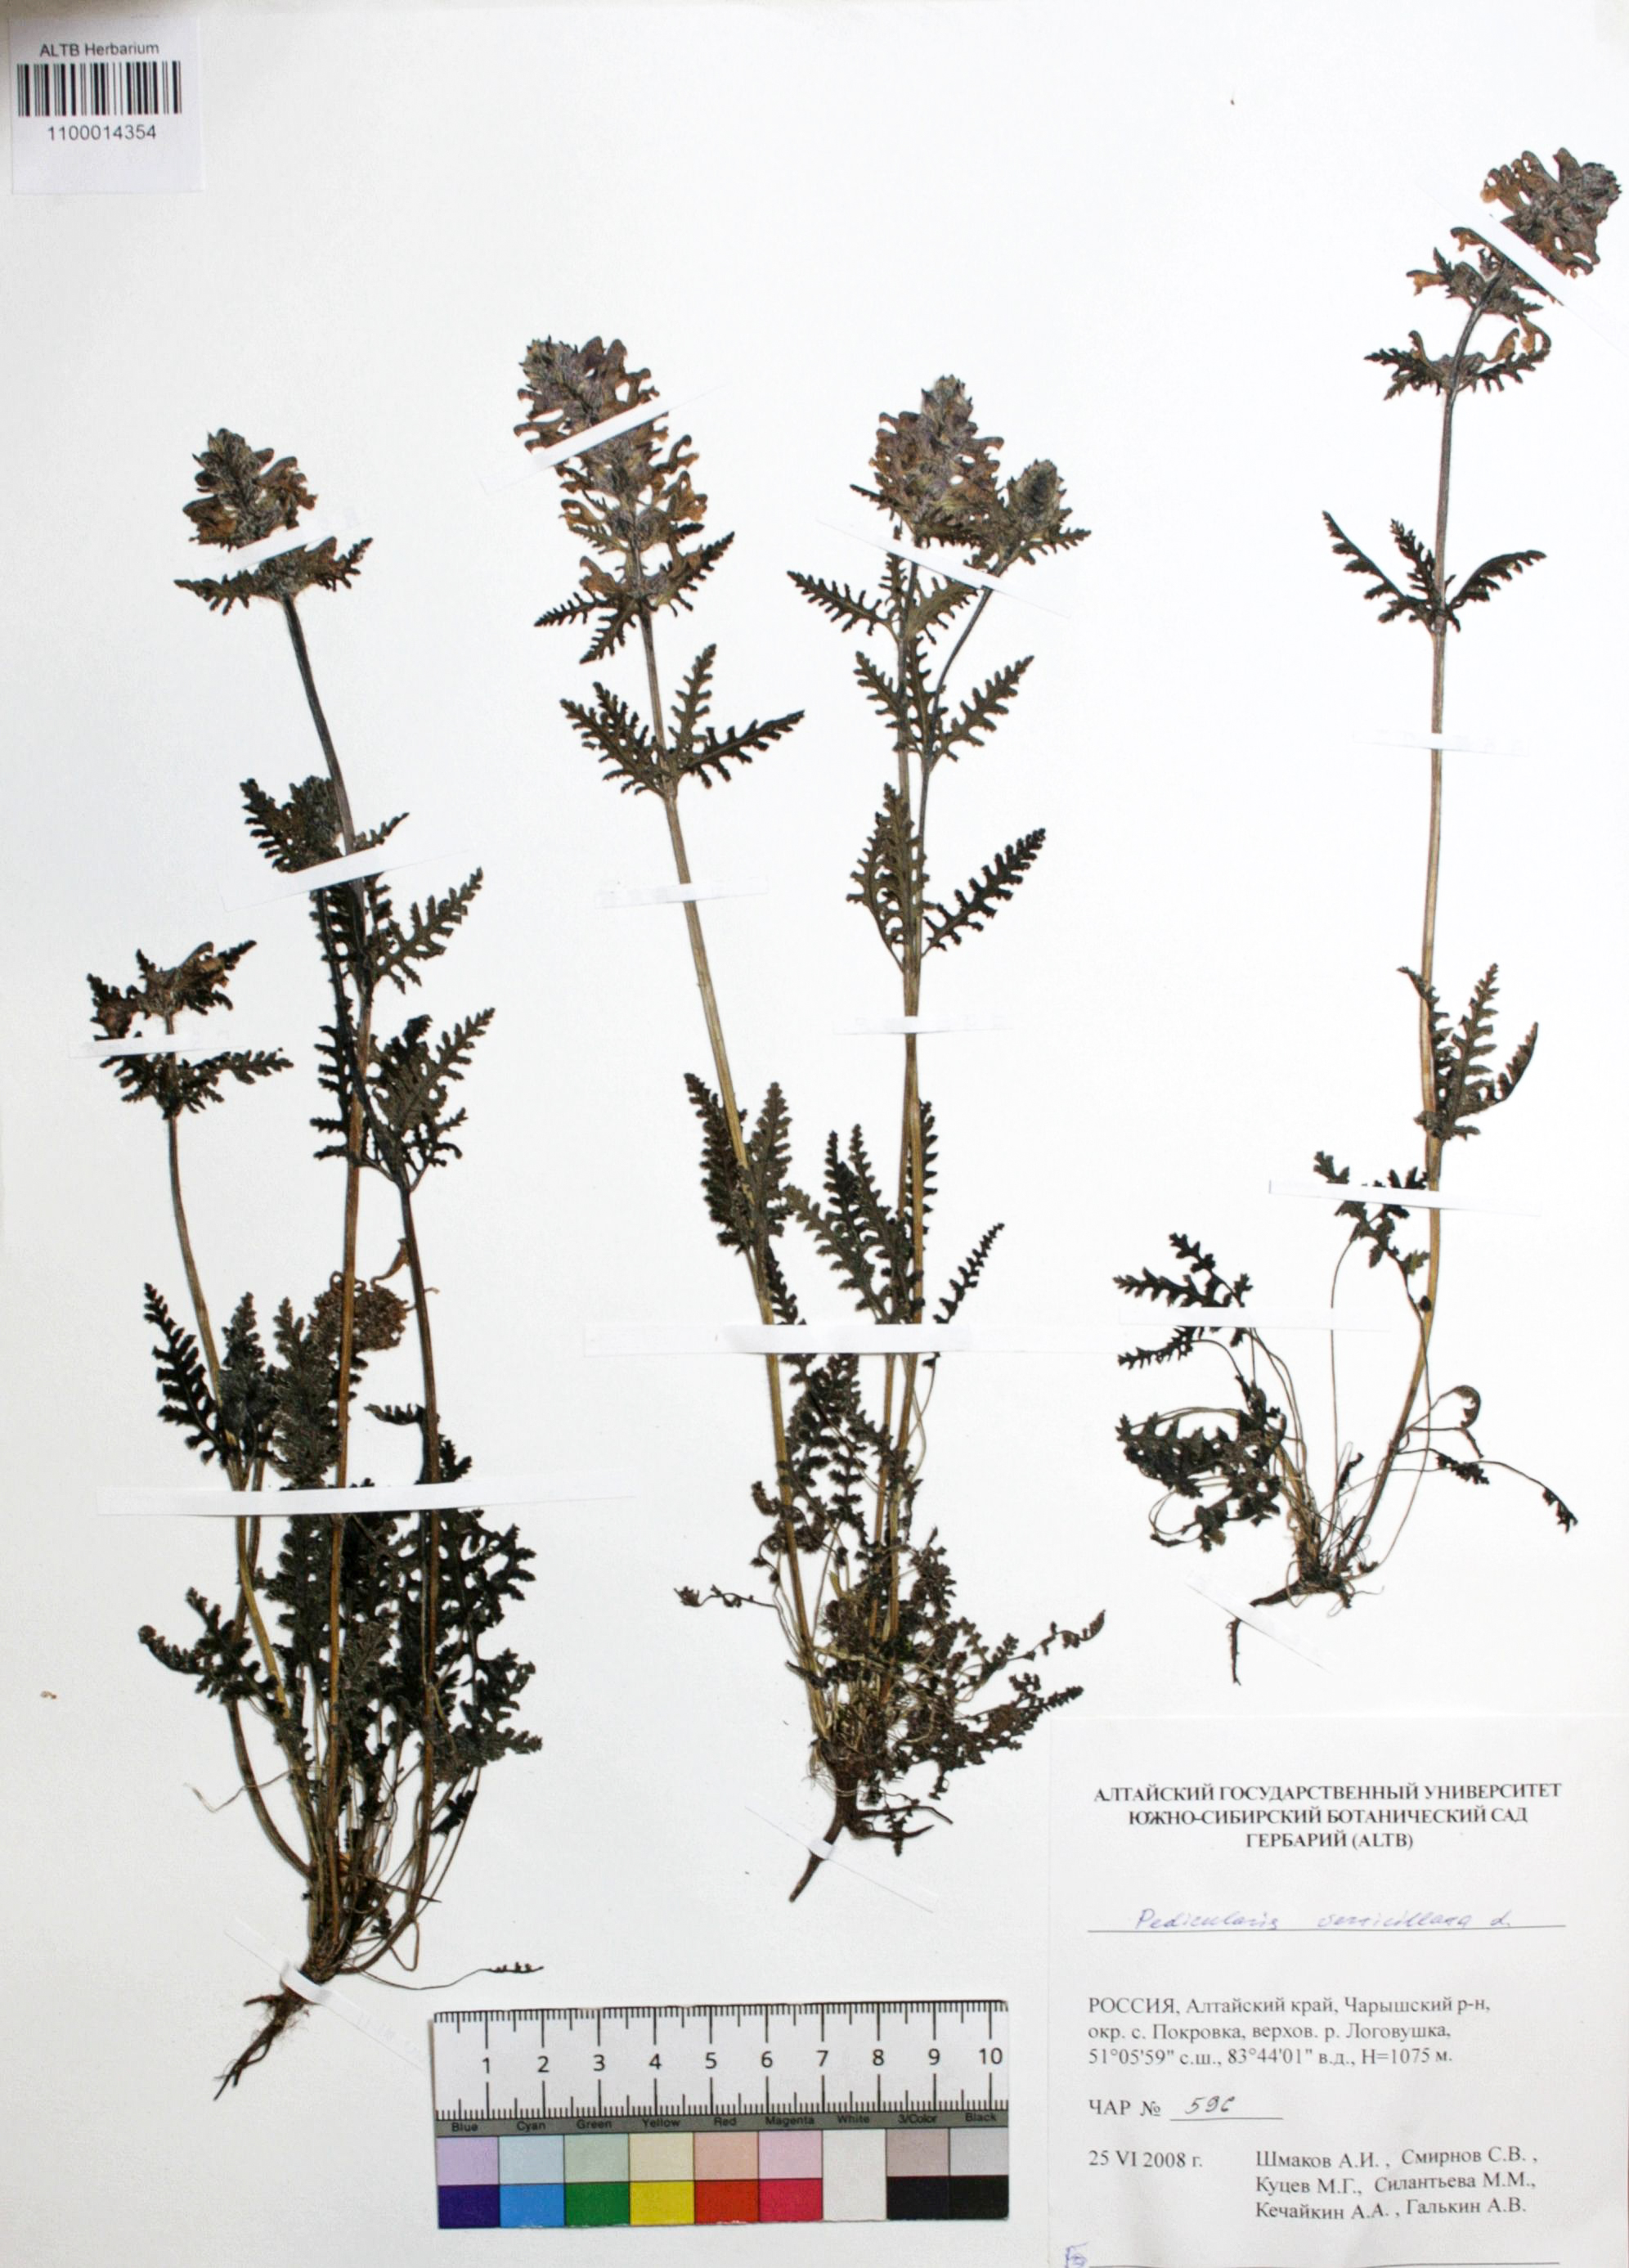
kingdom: Plantae
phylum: Tracheophyta
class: Magnoliopsida
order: Lamiales
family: Orobanchaceae
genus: Pedicularis
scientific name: Pedicularis verticillata
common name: Whorled lousewort
